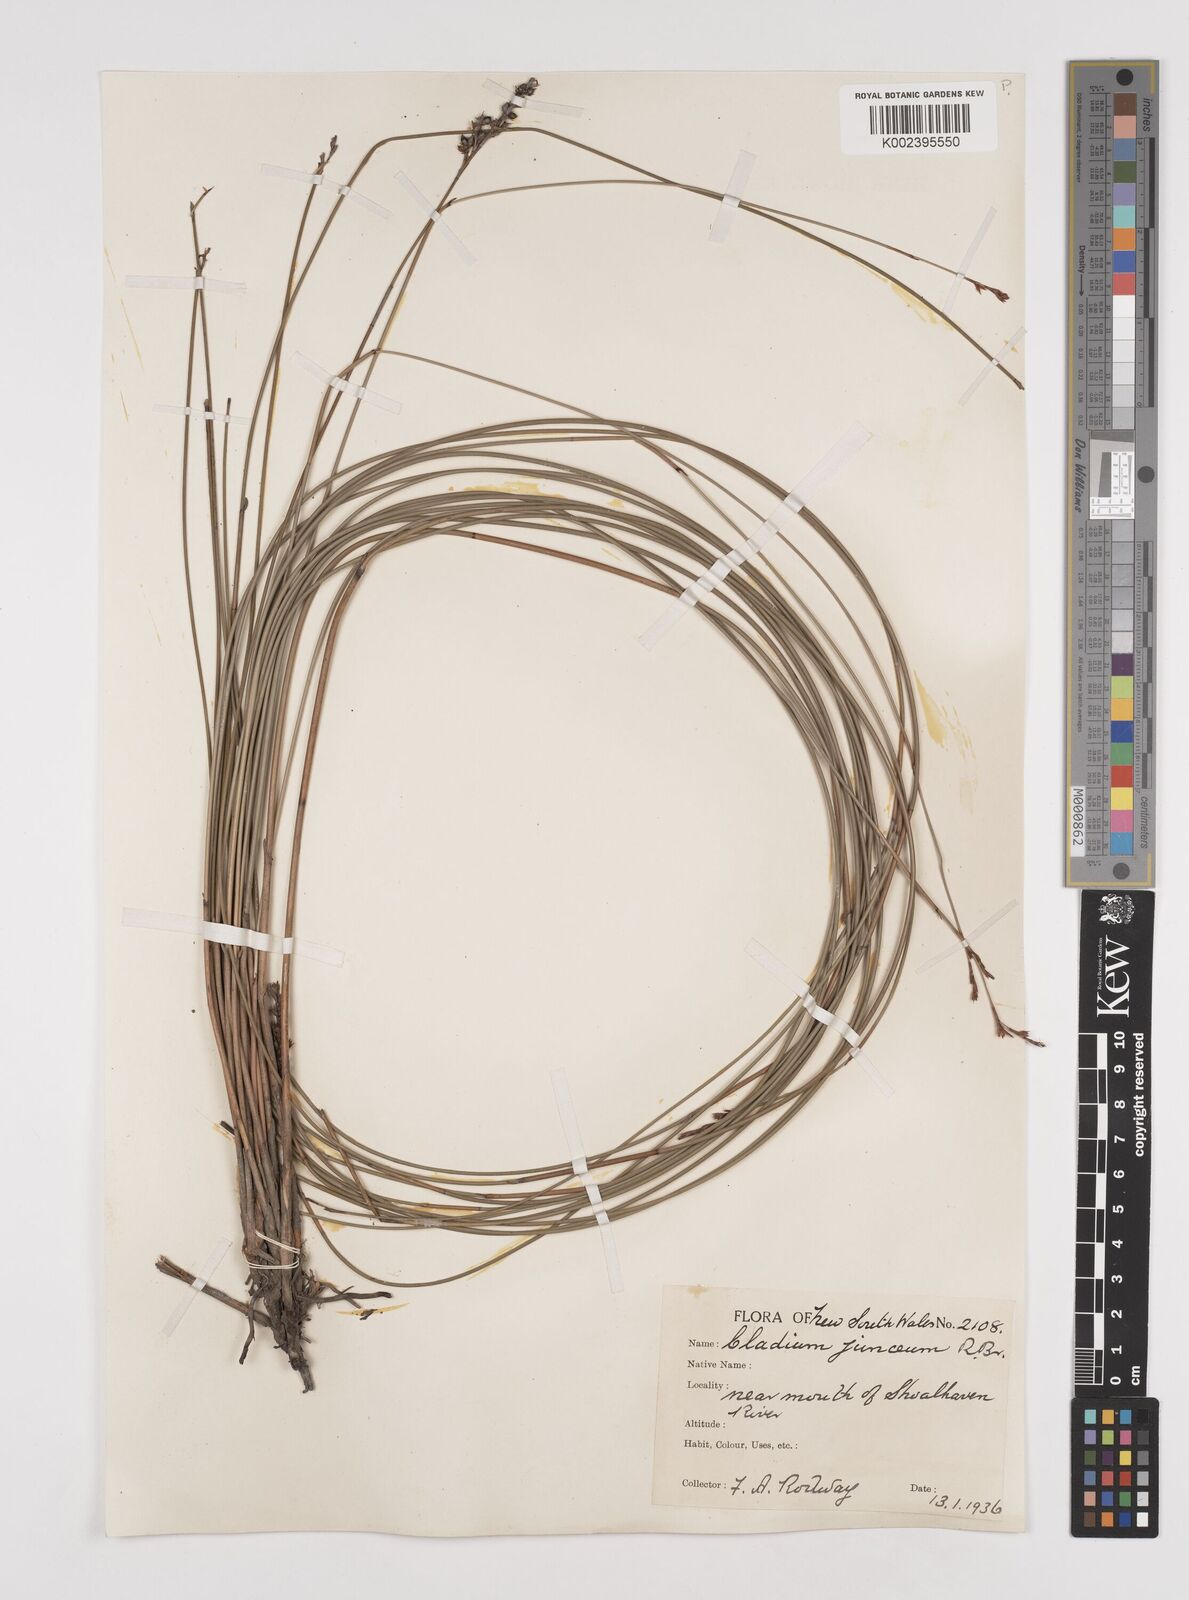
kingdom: Plantae
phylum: Tracheophyta
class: Liliopsida
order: Poales
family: Cyperaceae
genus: Machaerina
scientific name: Machaerina juncea
